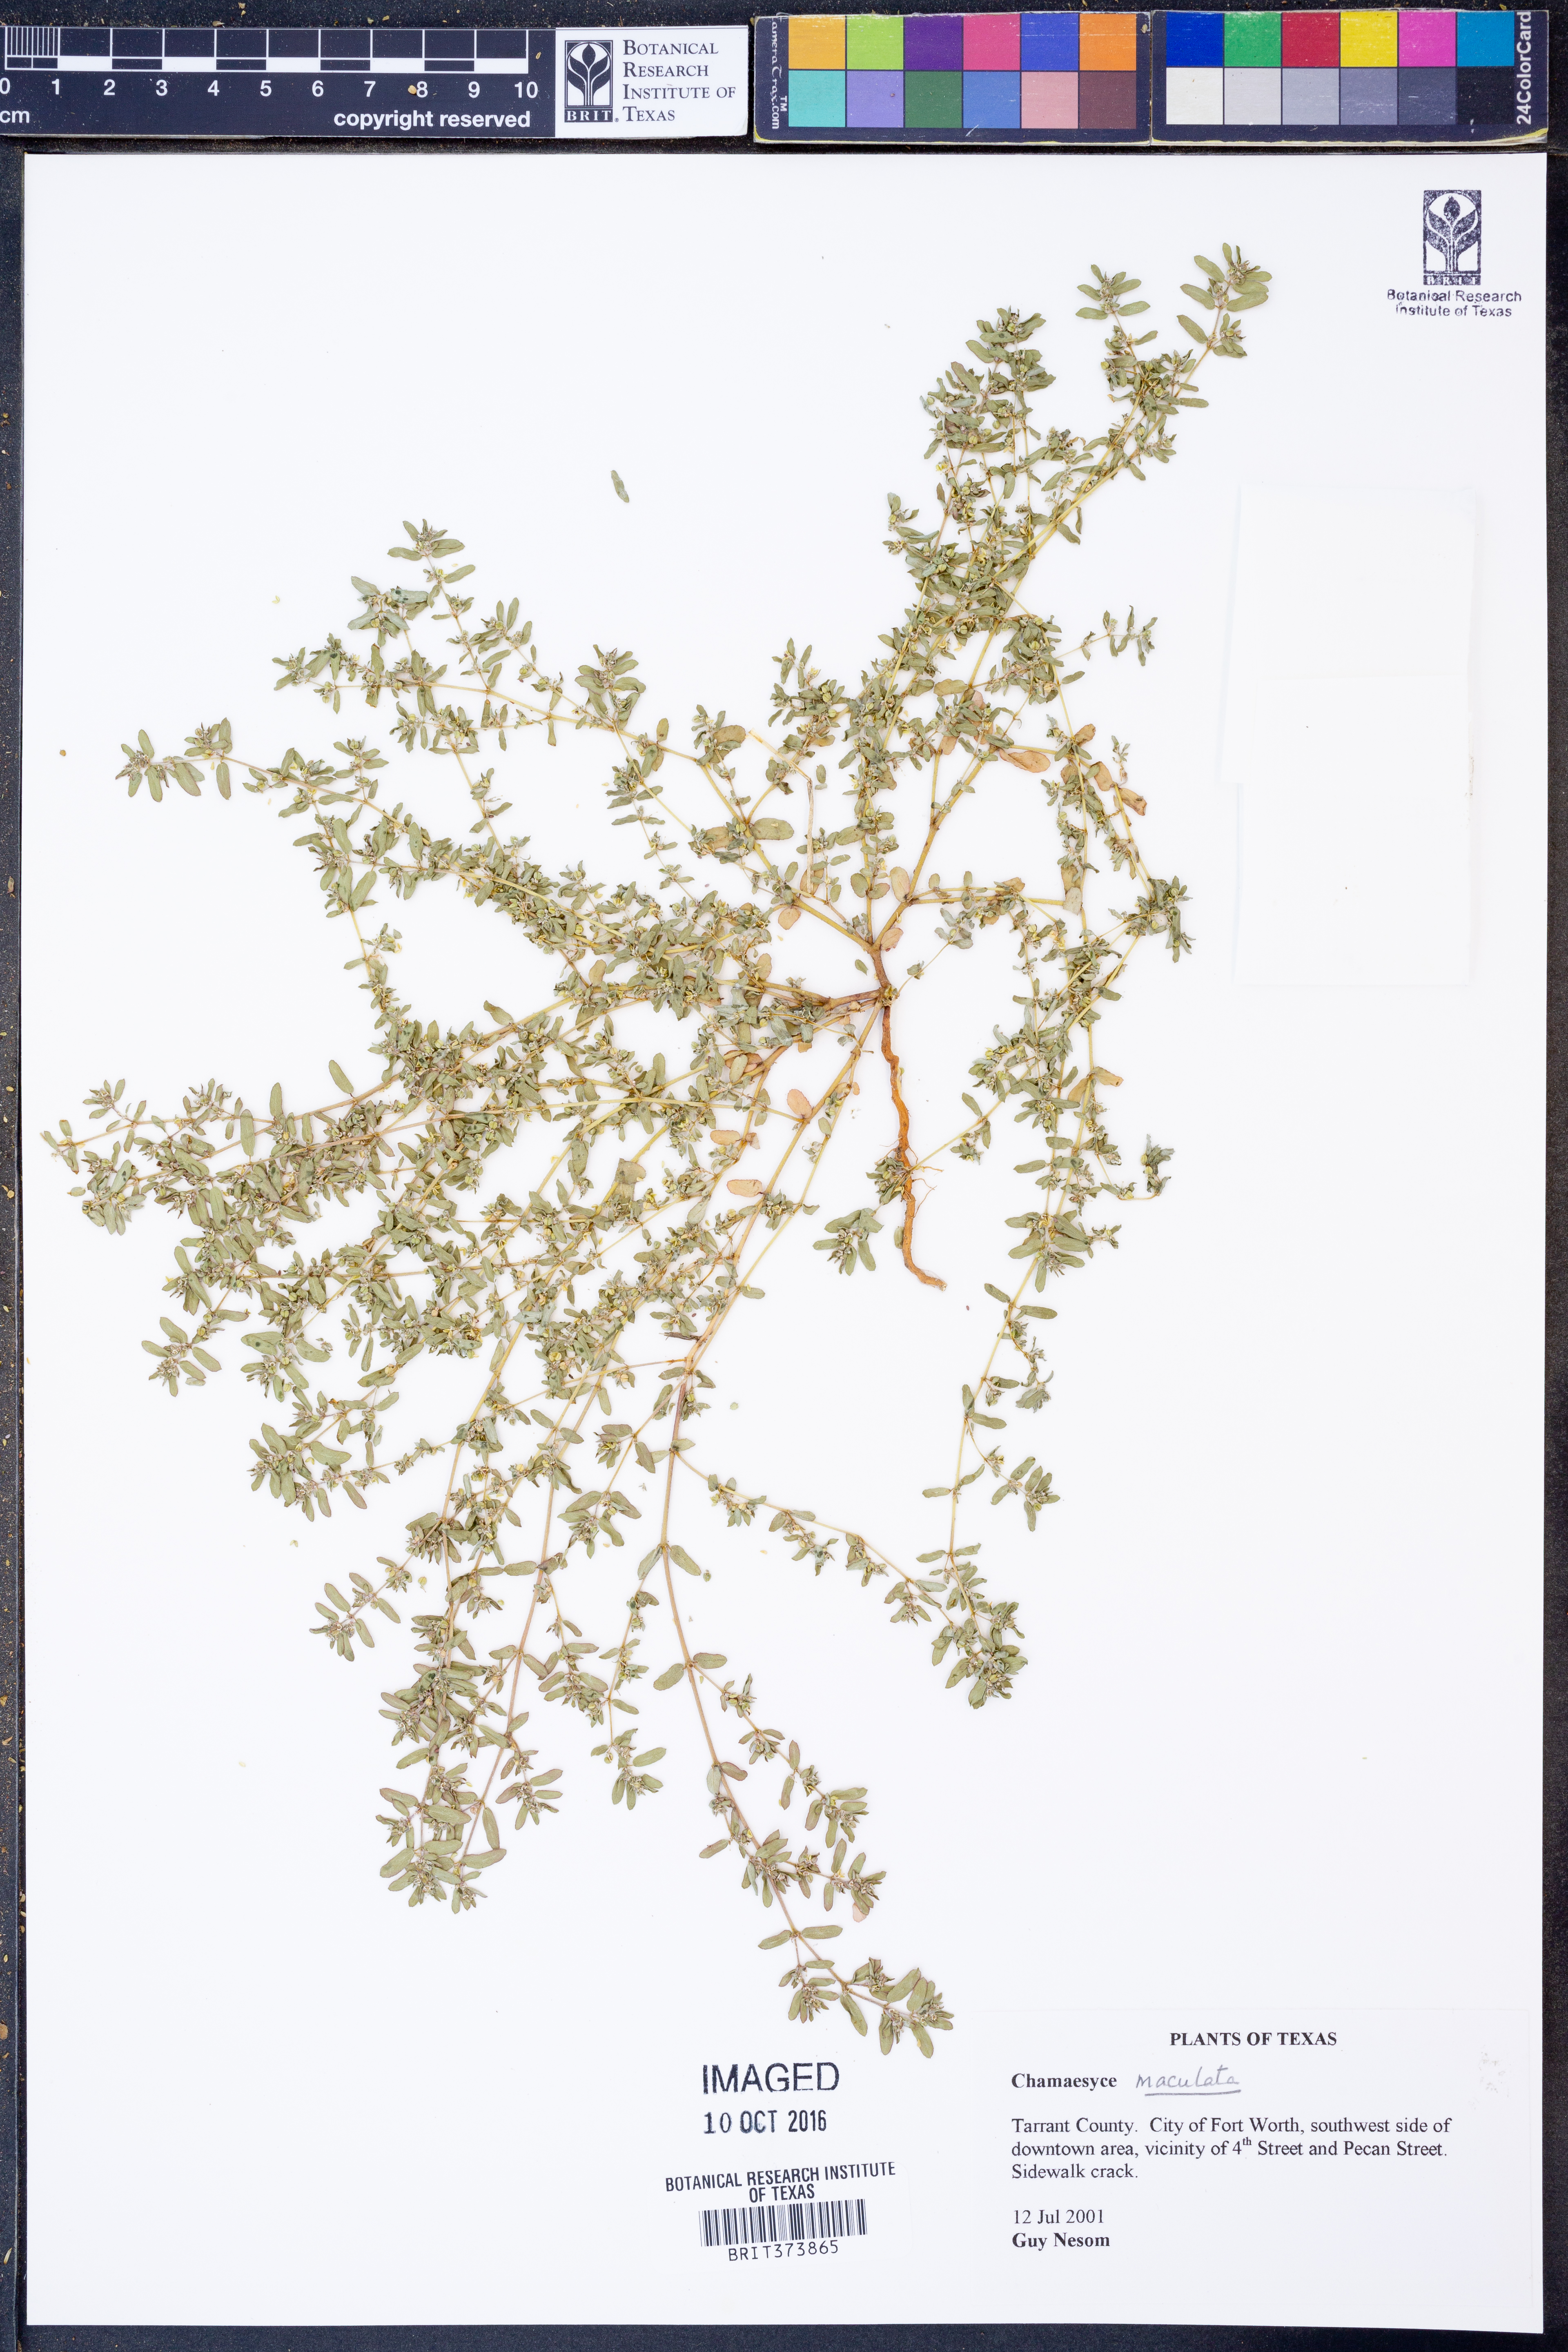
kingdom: Plantae
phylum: Tracheophyta
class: Magnoliopsida
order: Malpighiales
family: Euphorbiaceae
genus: Euphorbia
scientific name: Euphorbia maculata
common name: Spotted spurge
